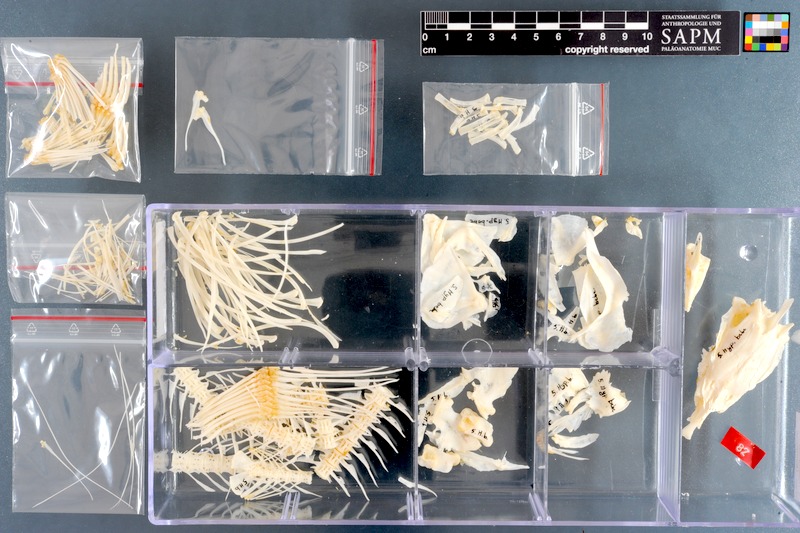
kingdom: Animalia
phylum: Chordata
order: Osteoglossiformes
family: Mormyridae
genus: Hyperopisus
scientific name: Hyperopisus bebe
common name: Ngai
